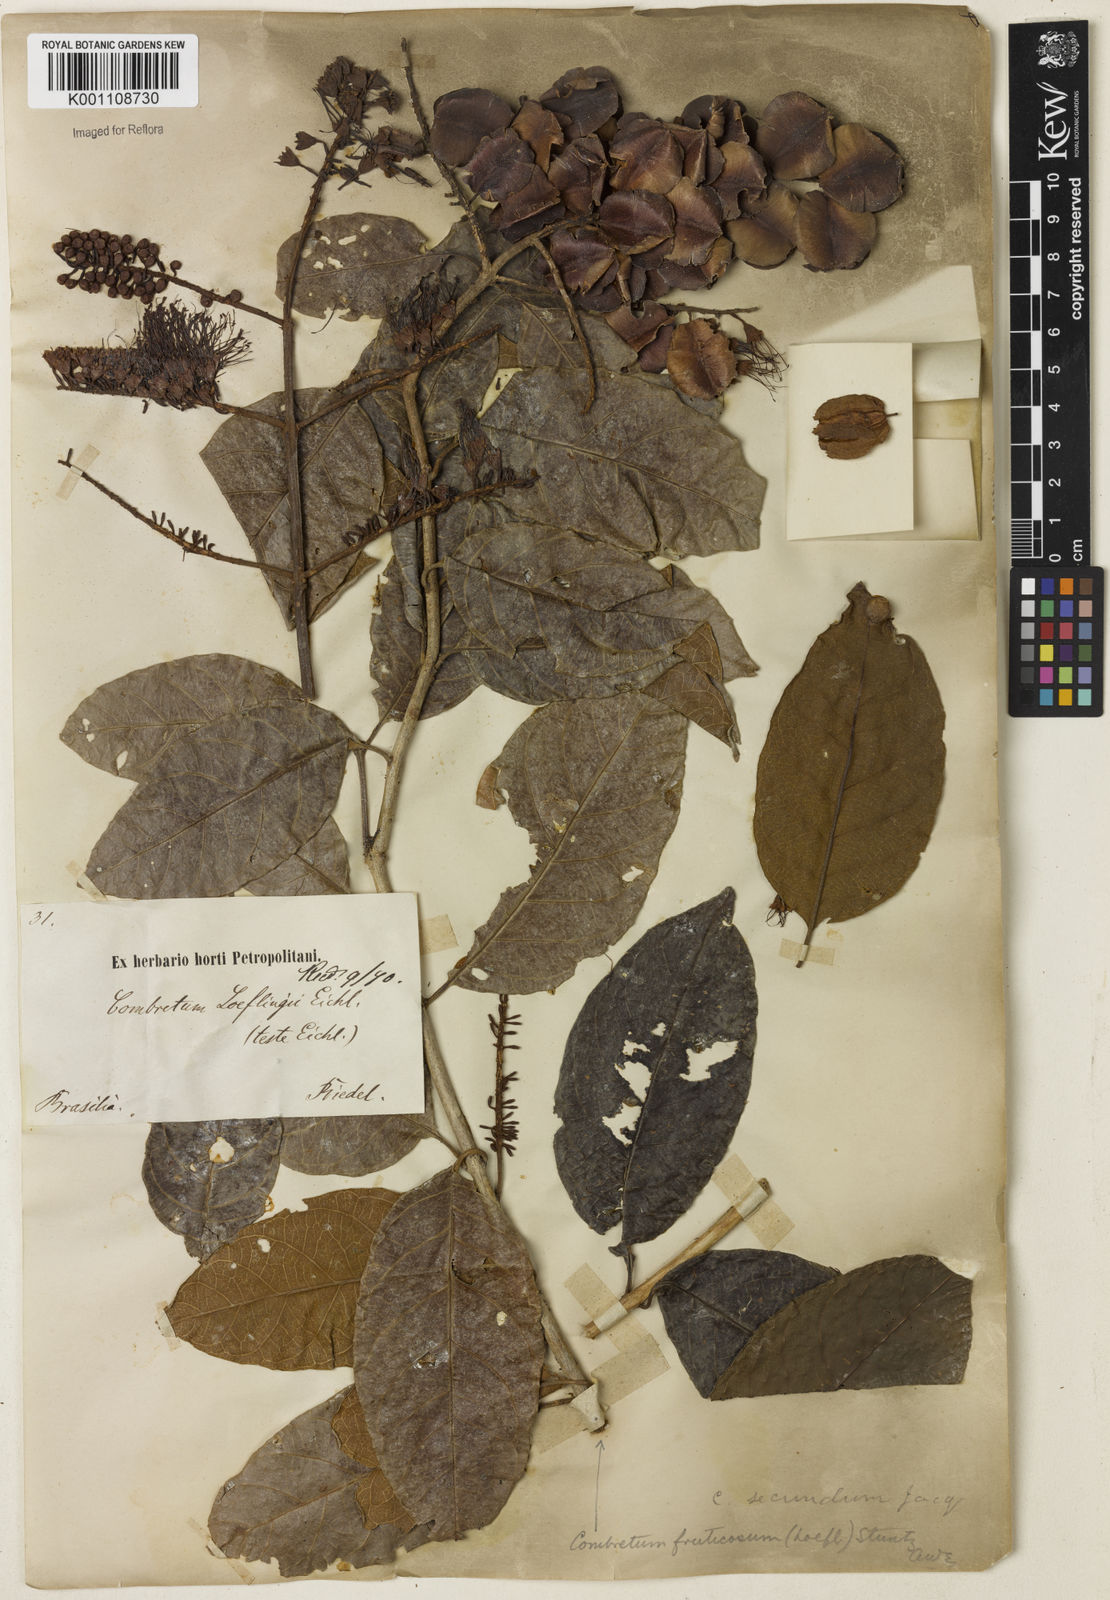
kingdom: Plantae
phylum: Tracheophyta
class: Magnoliopsida
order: Myrtales
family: Combretaceae
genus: Combretum
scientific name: Combretum fruticosum
